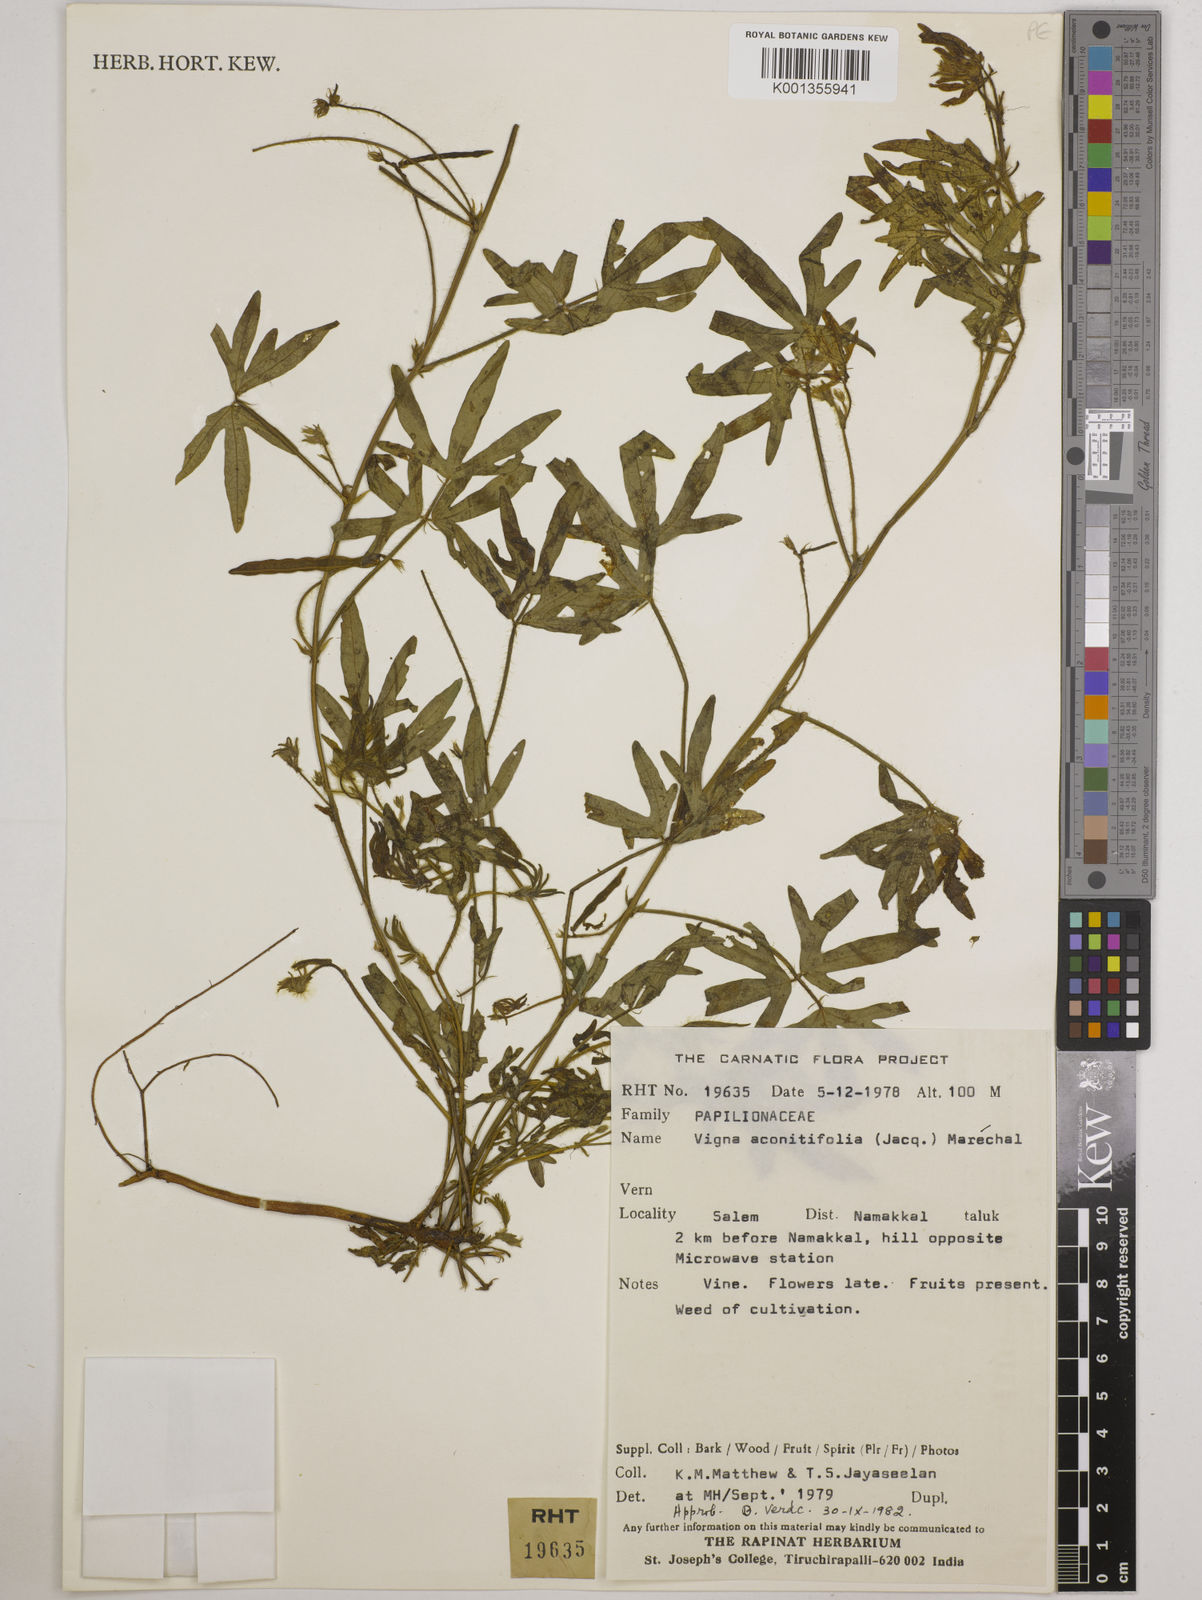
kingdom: Plantae
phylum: Tracheophyta
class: Magnoliopsida
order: Fabales
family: Fabaceae
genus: Vigna
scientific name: Vigna aconitifolia
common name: Dew bean
